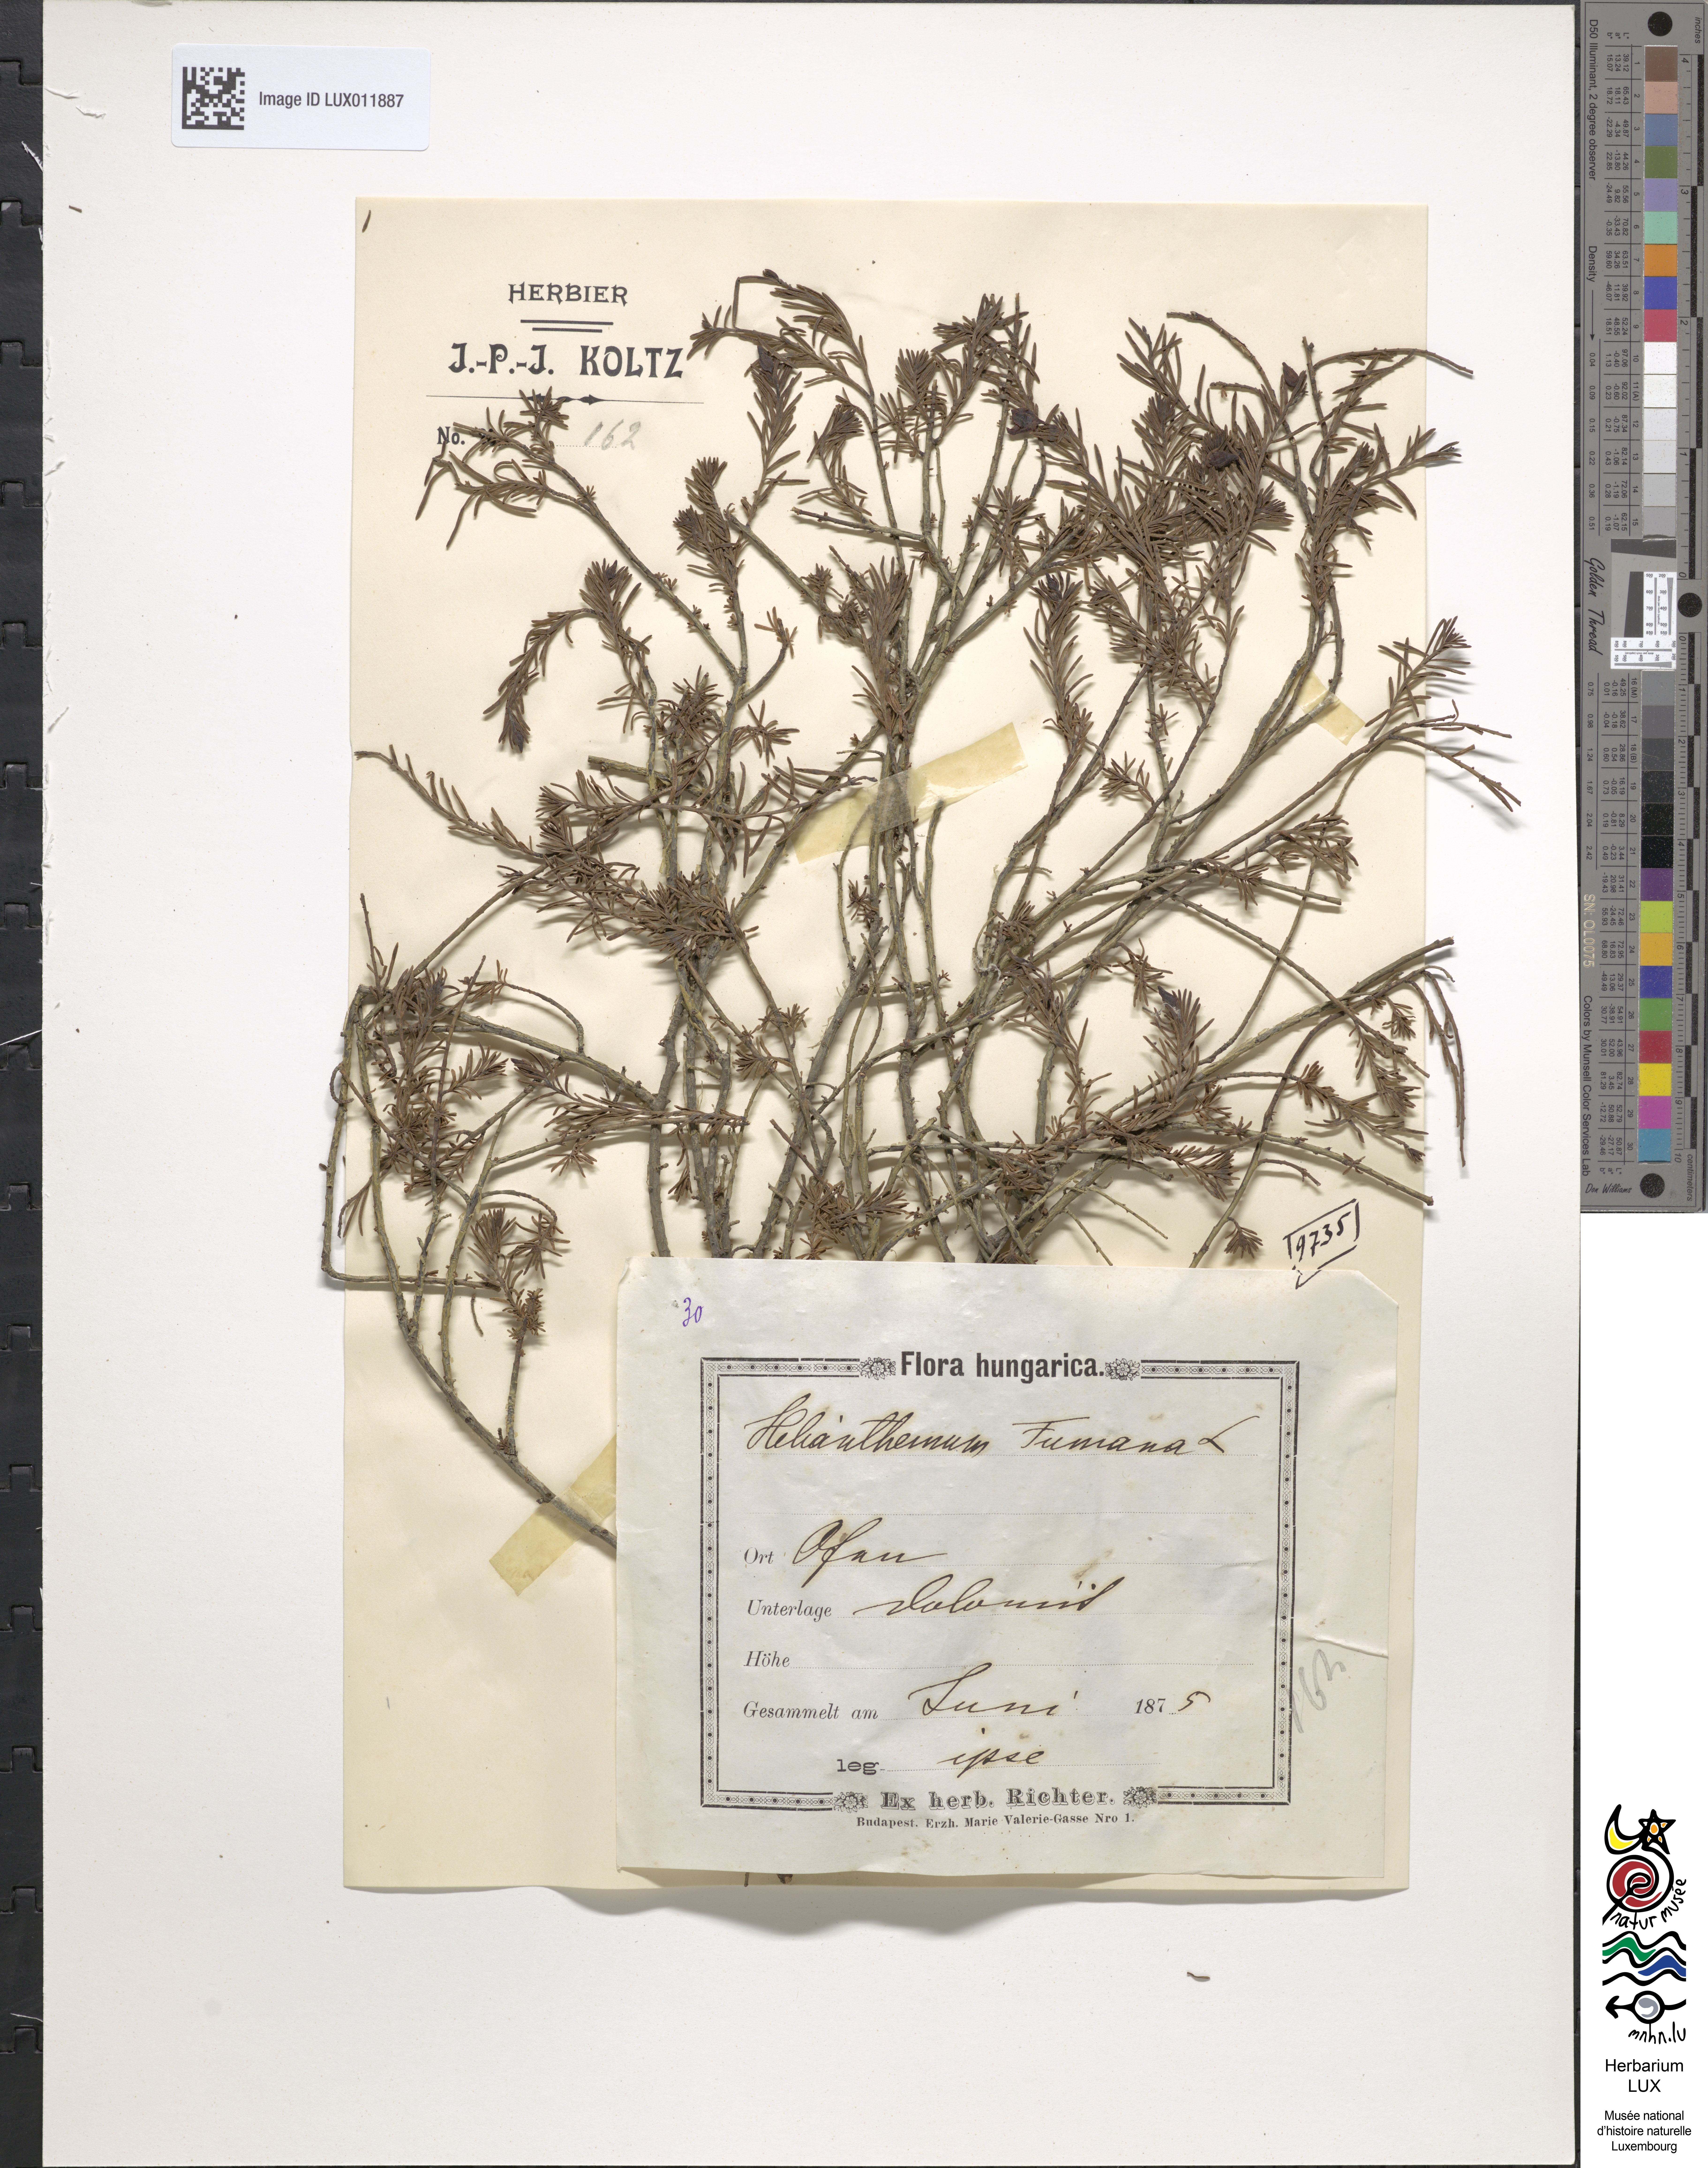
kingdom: Plantae
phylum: Tracheophyta
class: Magnoliopsida
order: Malvales
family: Cistaceae
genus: Fumana
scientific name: Fumana ericoides
